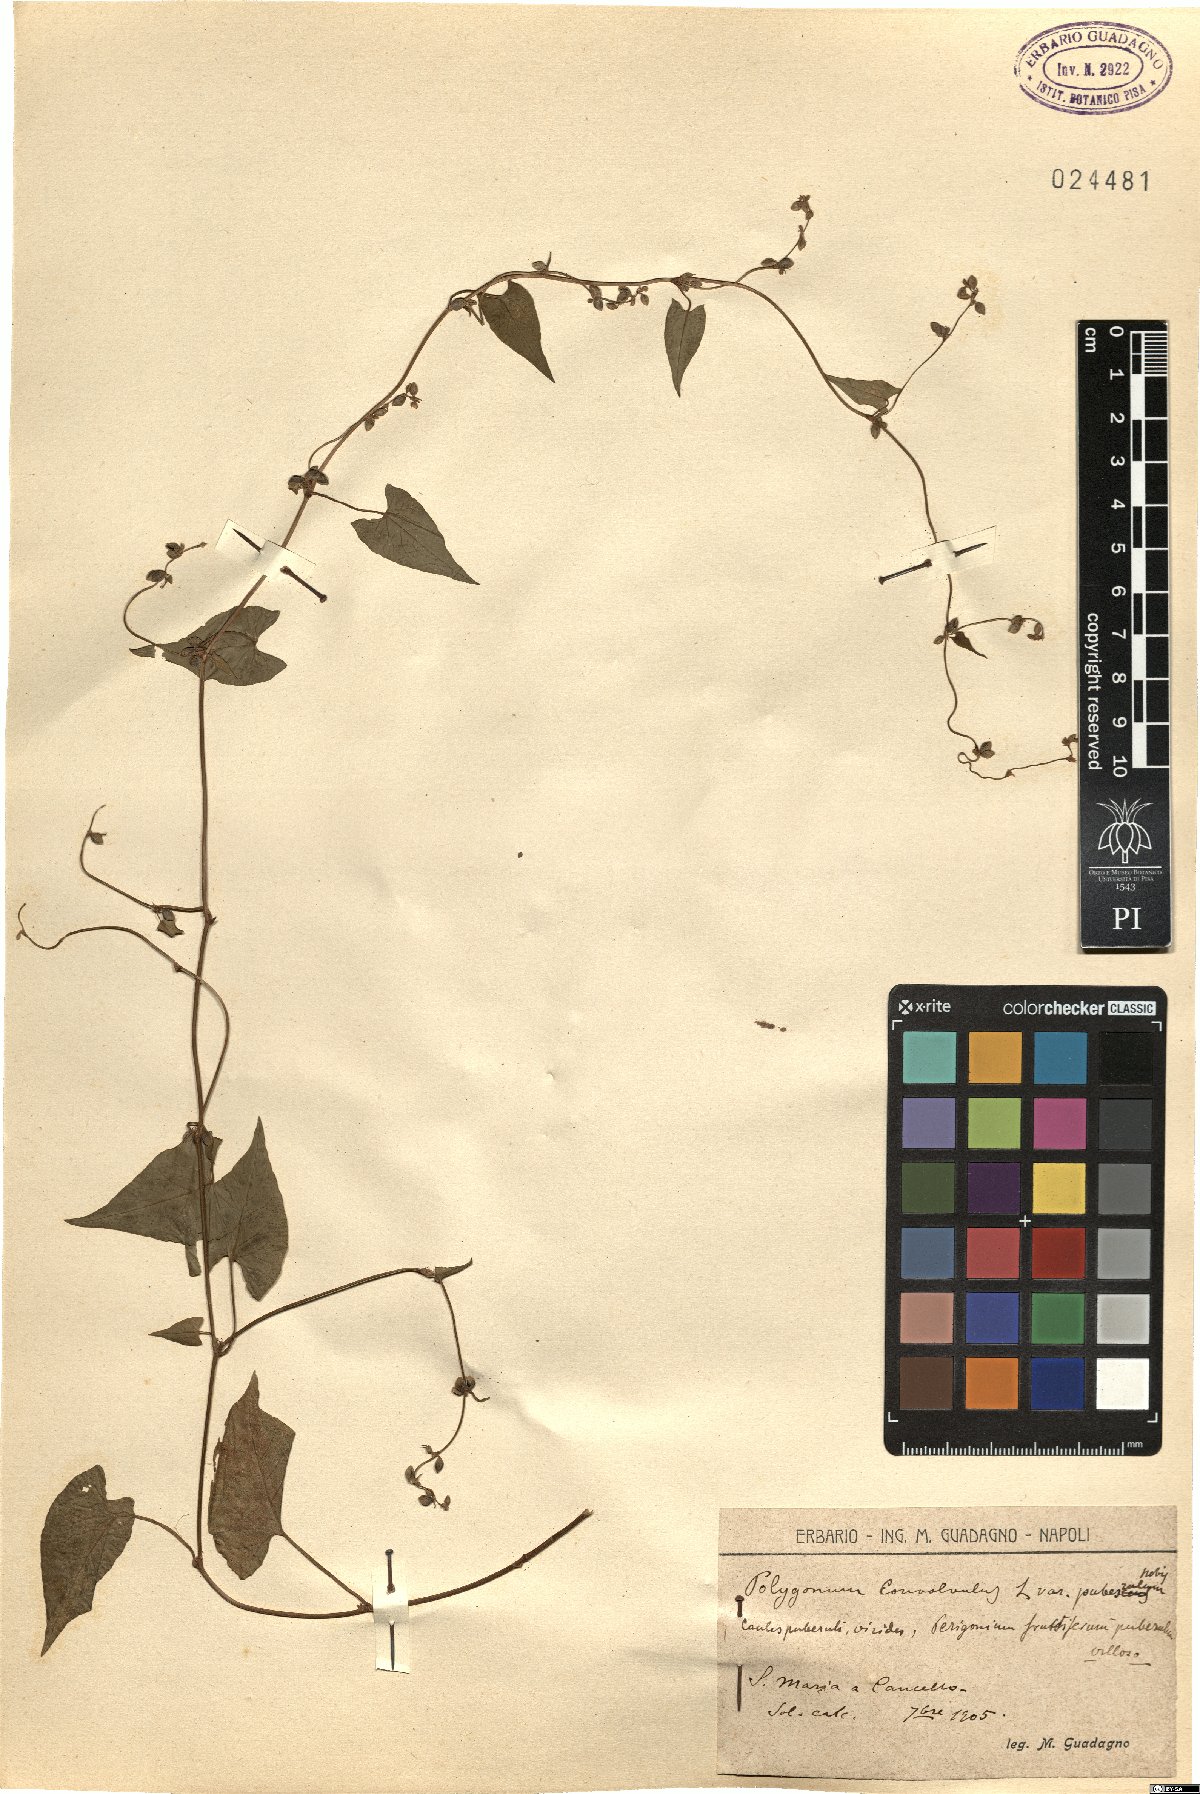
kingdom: Plantae
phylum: Tracheophyta
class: Magnoliopsida
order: Caryophyllales
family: Polygonaceae
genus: Fallopia
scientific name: Fallopia convolvulus
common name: Black bindweed
